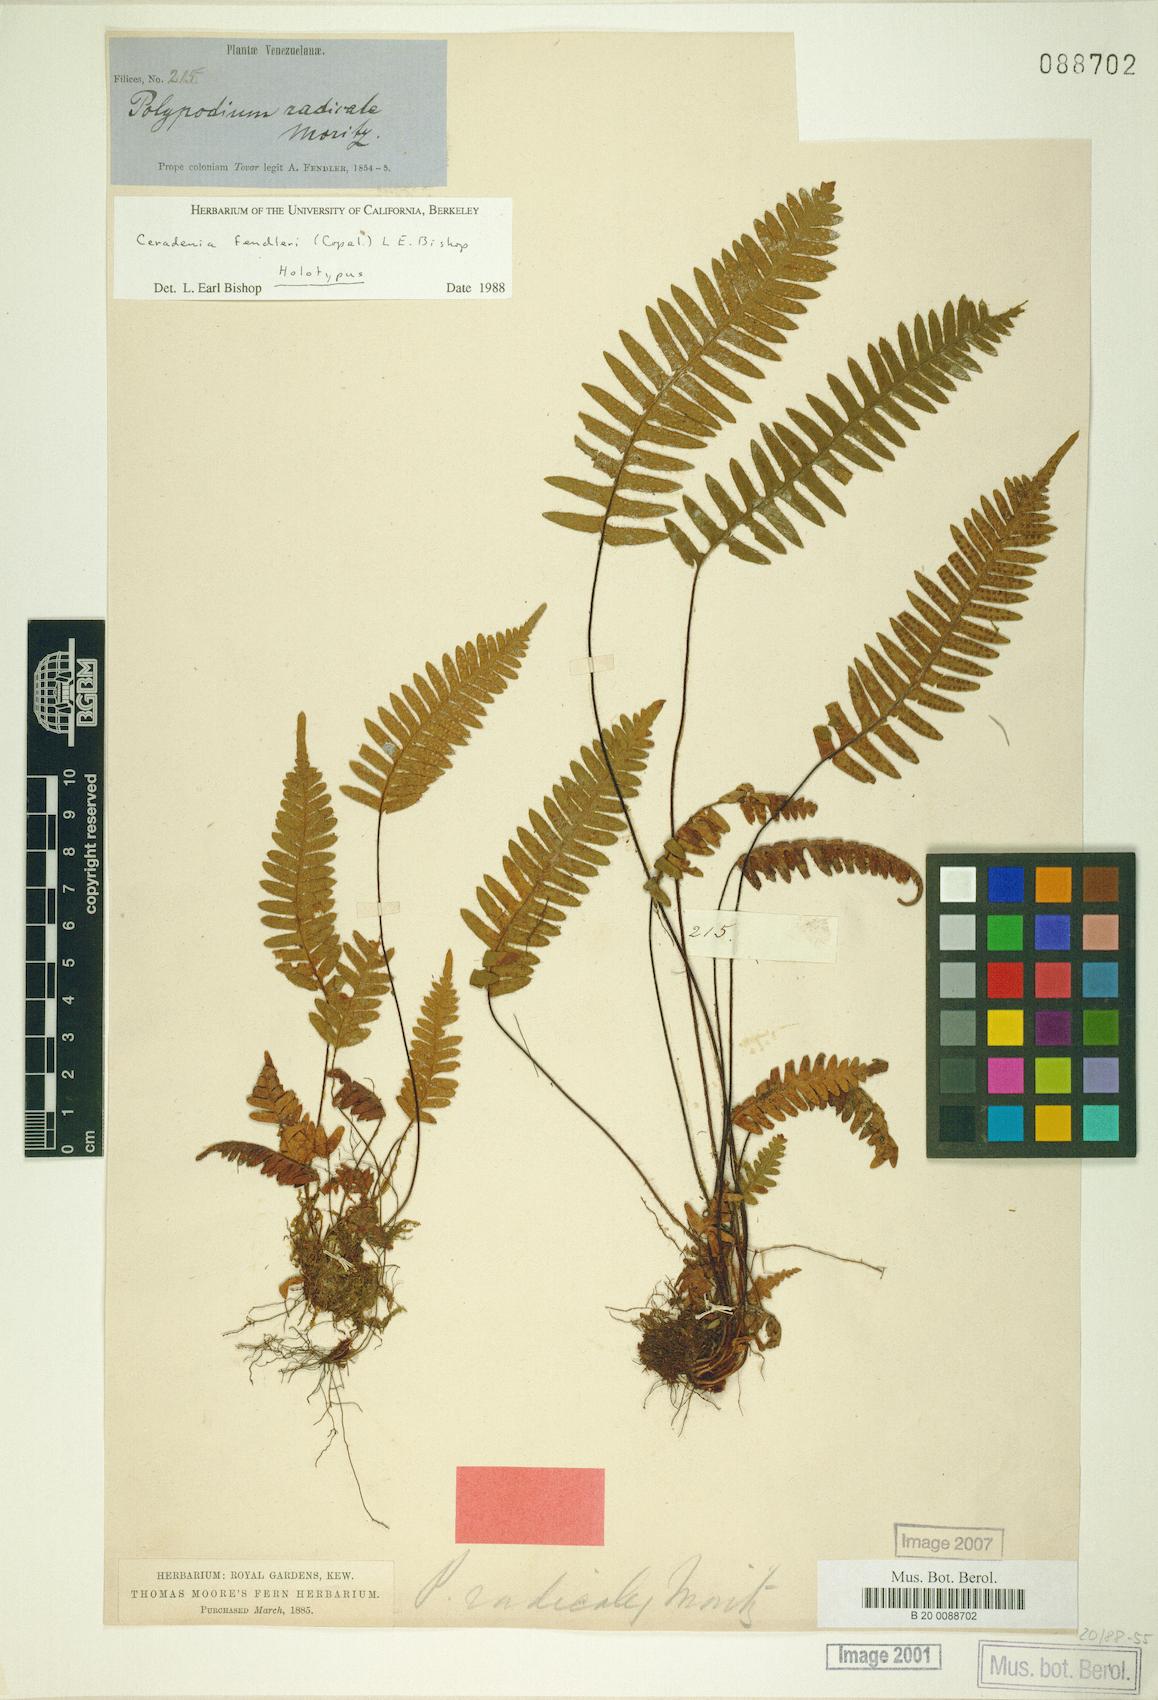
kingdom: Plantae
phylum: Tracheophyta
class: Polypodiopsida
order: Polypodiales
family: Polypodiaceae
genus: Ceradenia
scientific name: Ceradenia fendleri
